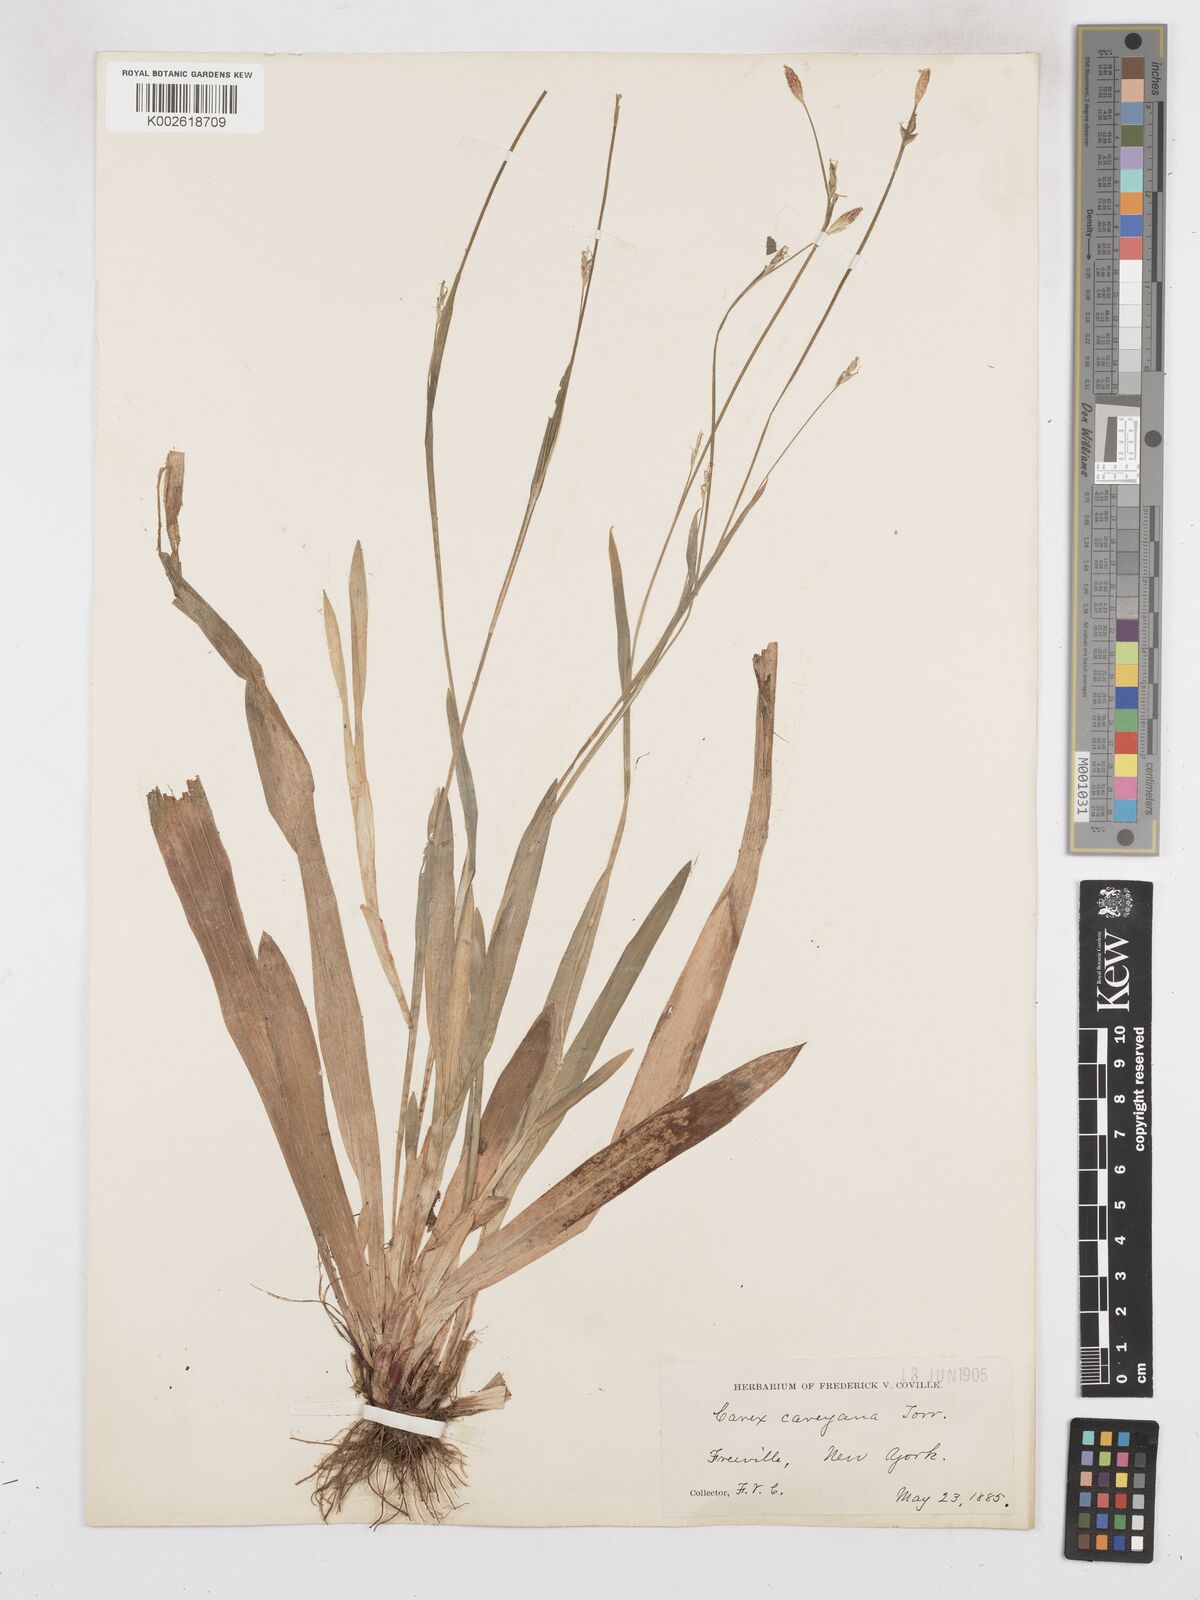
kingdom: Plantae
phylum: Tracheophyta
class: Liliopsida
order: Poales
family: Cyperaceae
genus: Carex
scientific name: Carex careyana
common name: Carey's sedge
